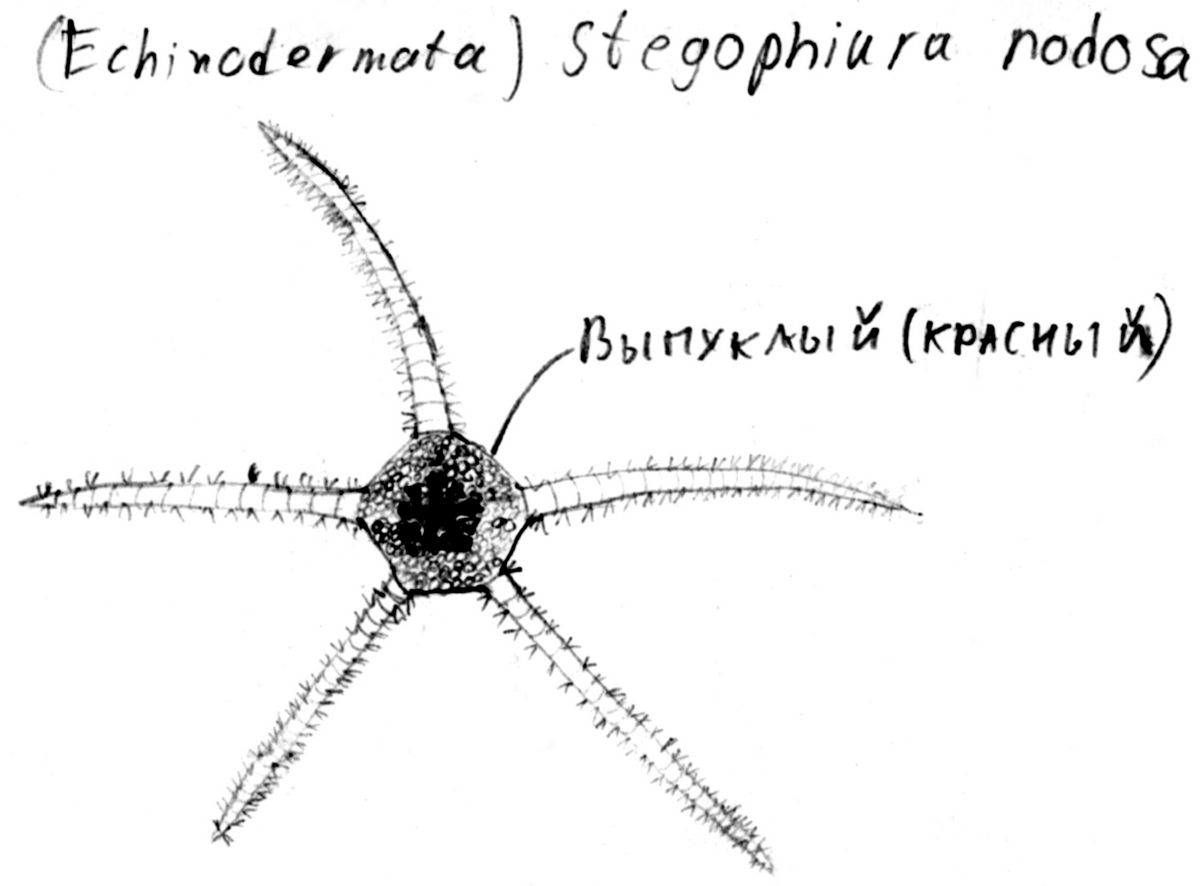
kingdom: Animalia
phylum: Echinodermata
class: Ophiuroidea
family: Ophiopyrgidae
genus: Stegophiura
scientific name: Stegophiura nodosa
